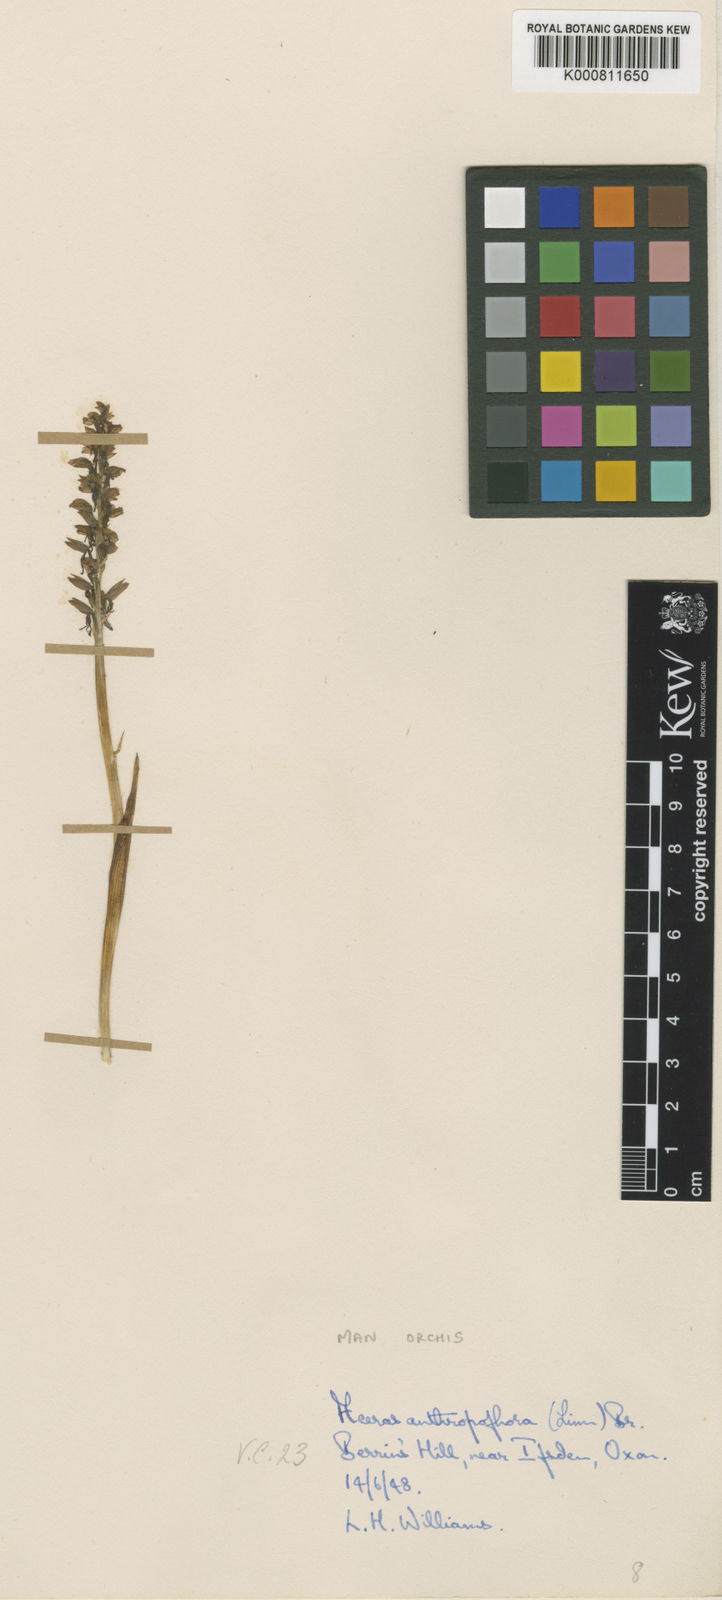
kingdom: Plantae
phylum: Tracheophyta
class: Liliopsida
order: Asparagales
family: Orchidaceae
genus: Orchis
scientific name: Orchis
